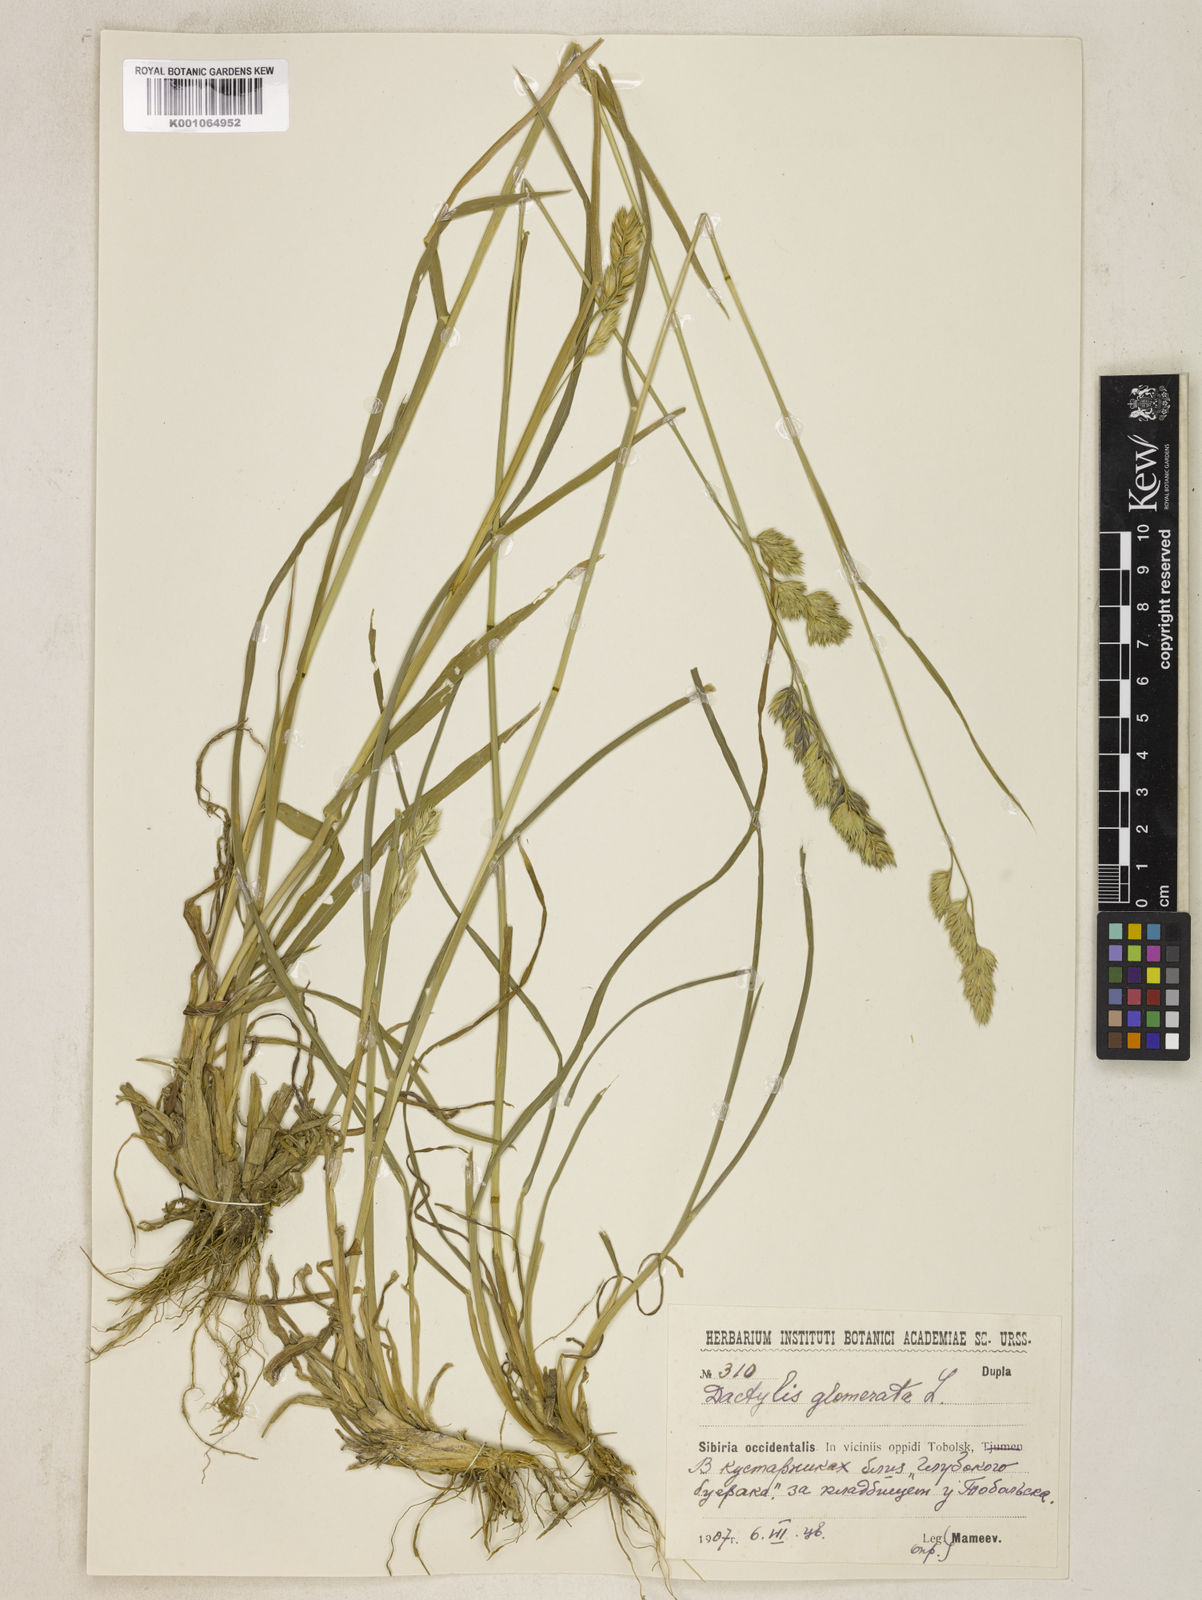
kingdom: Plantae
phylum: Tracheophyta
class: Liliopsida
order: Poales
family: Poaceae
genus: Dactylis
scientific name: Dactylis glomerata
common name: Orchardgrass
